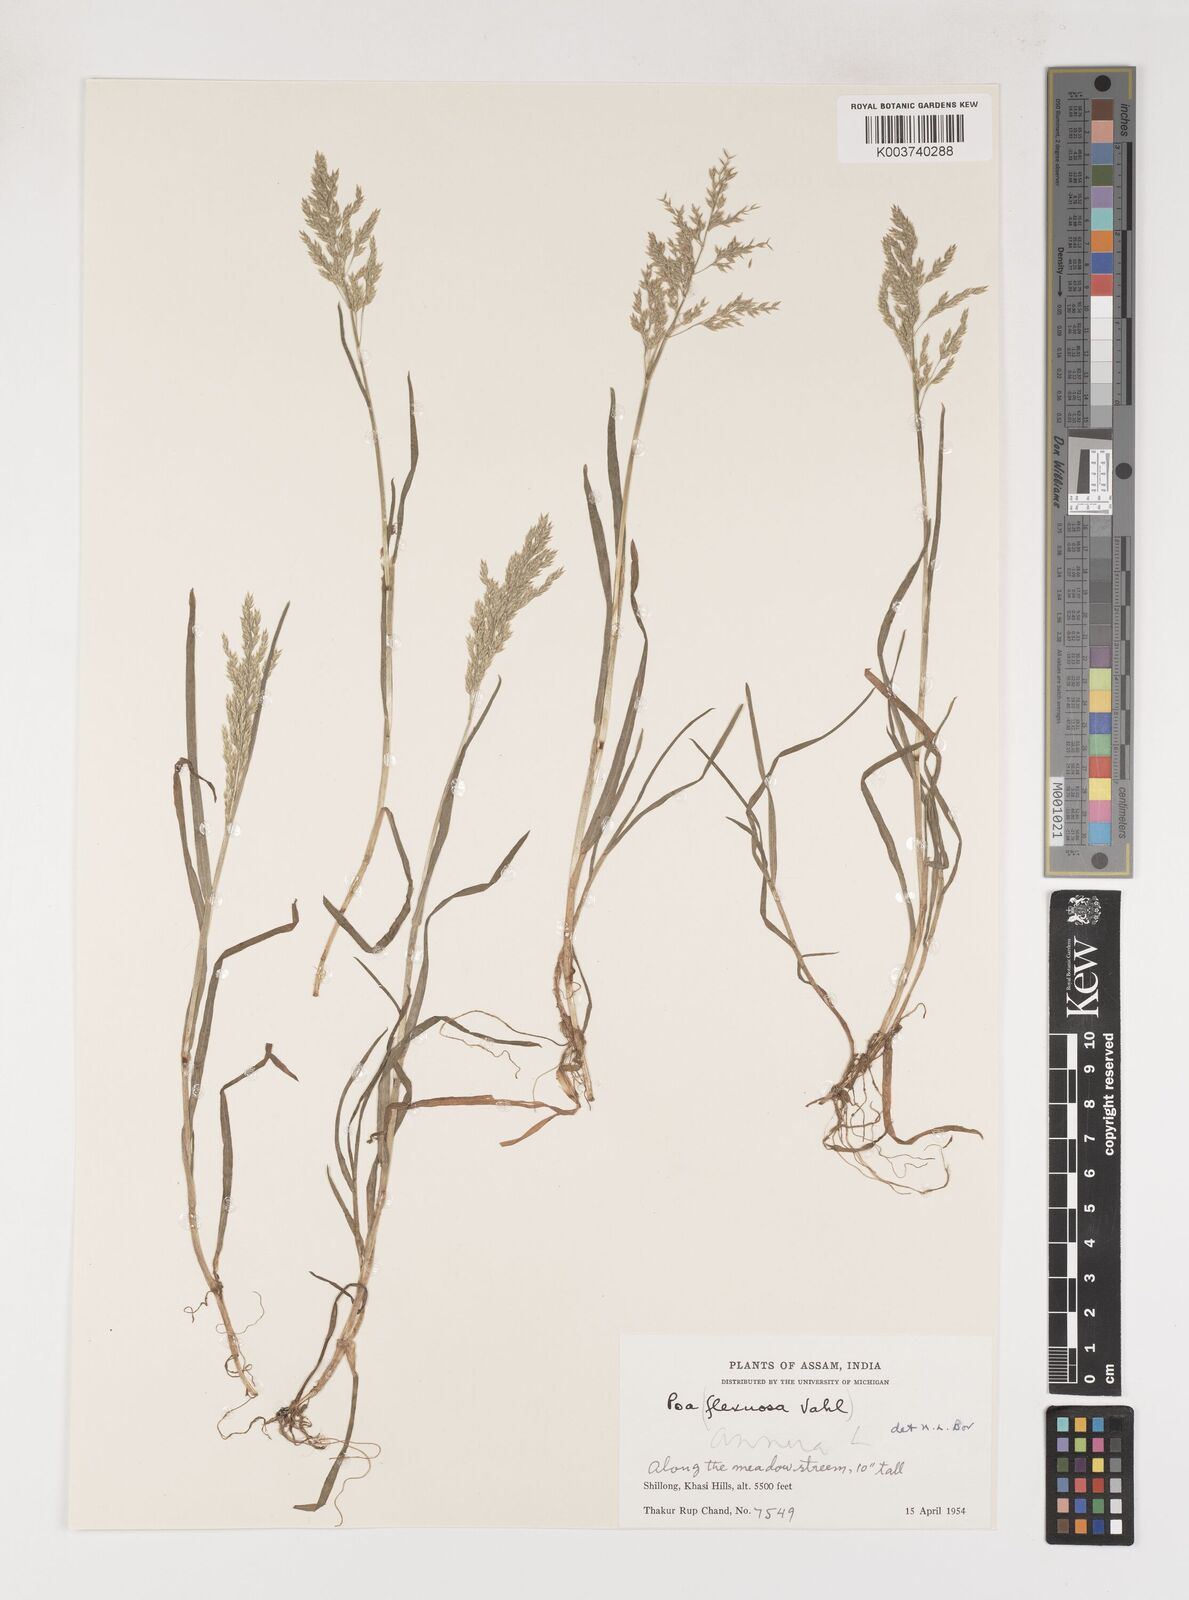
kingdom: Plantae
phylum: Tracheophyta
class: Liliopsida
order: Poales
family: Poaceae
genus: Poa
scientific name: Poa annua
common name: Annual bluegrass
